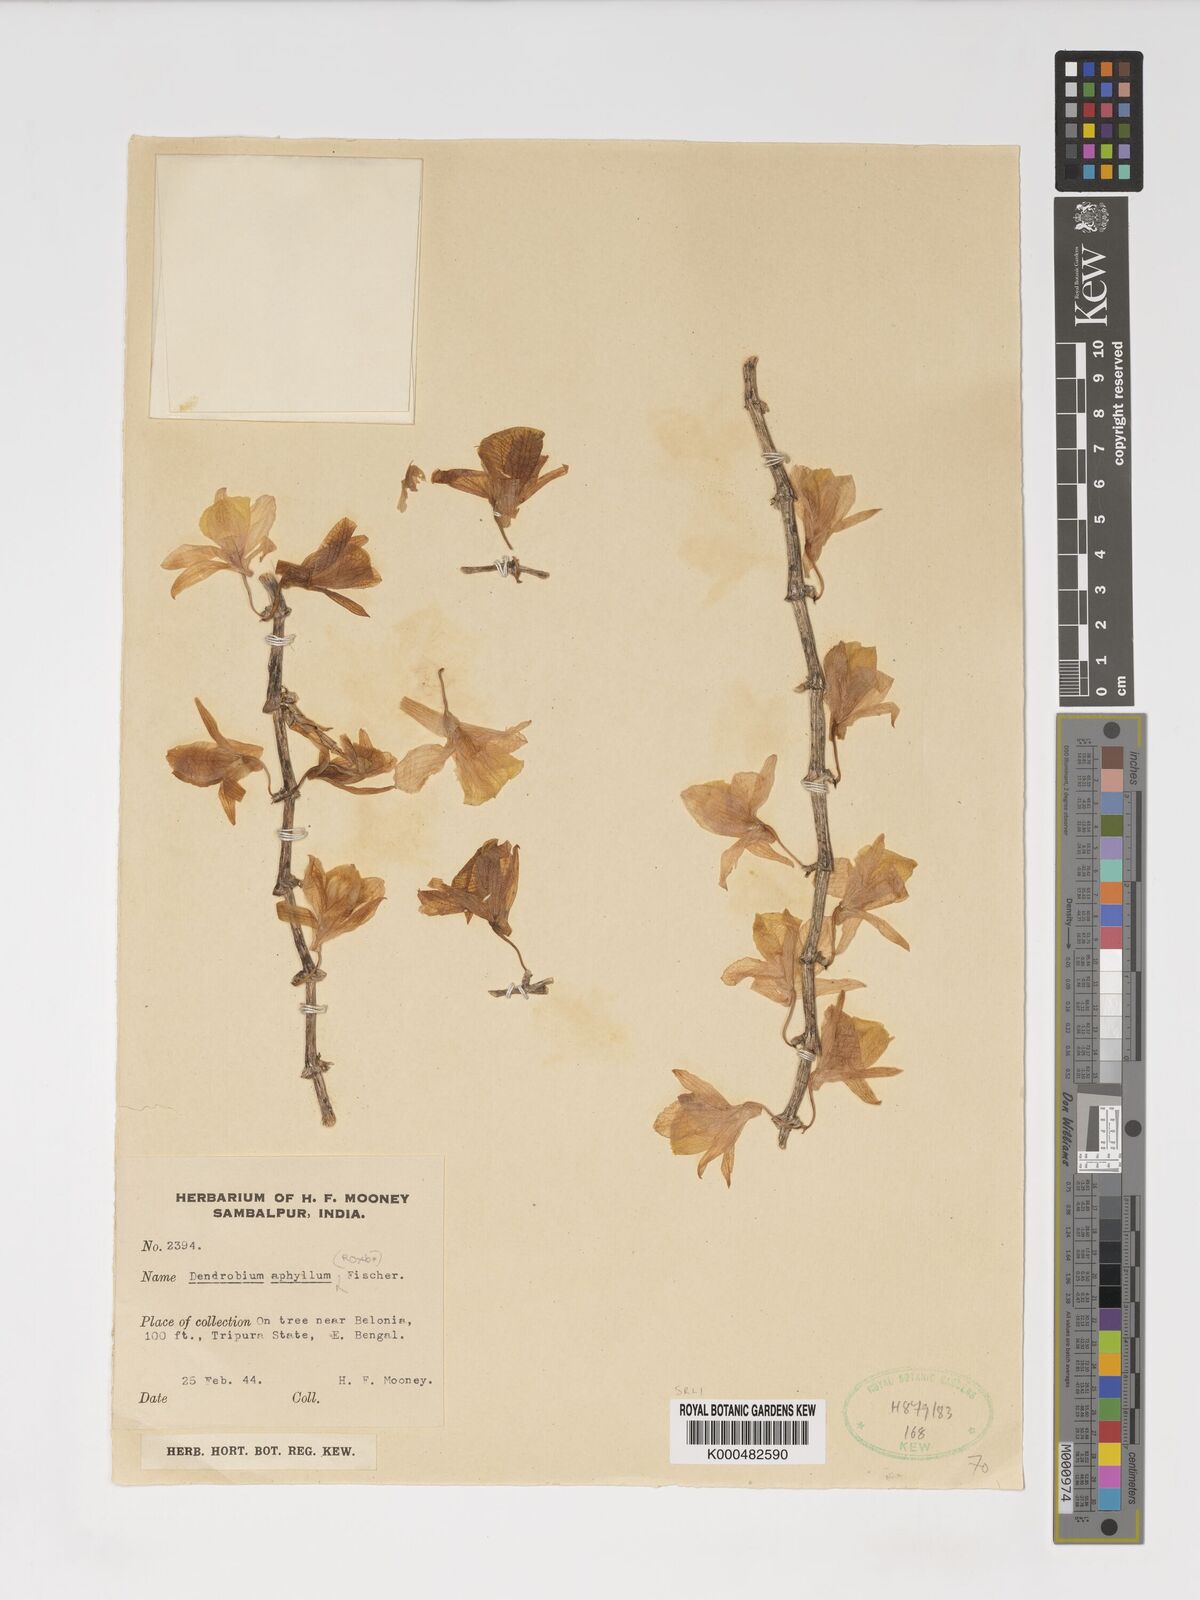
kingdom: Plantae
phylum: Tracheophyta
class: Liliopsida
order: Asparagales
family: Orchidaceae
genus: Dendrobium
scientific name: Dendrobium macrostachyum
